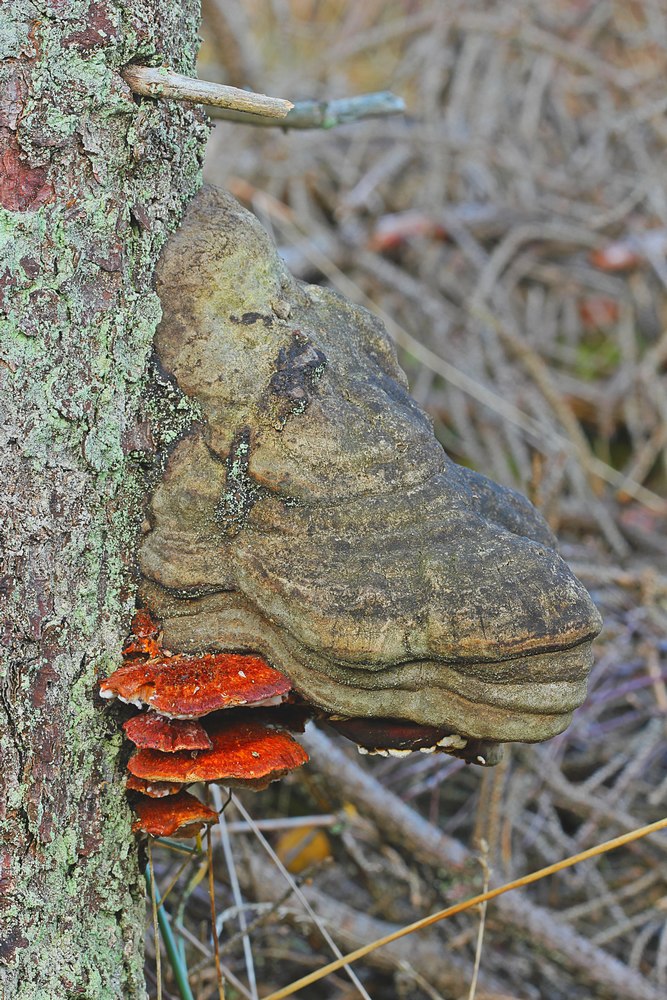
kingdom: Fungi
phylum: Basidiomycota
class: Agaricomycetes
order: Polyporales
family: Pycnoporellaceae
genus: Pycnoporellus
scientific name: Pycnoporellus fulgens
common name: flammeporesvamp
